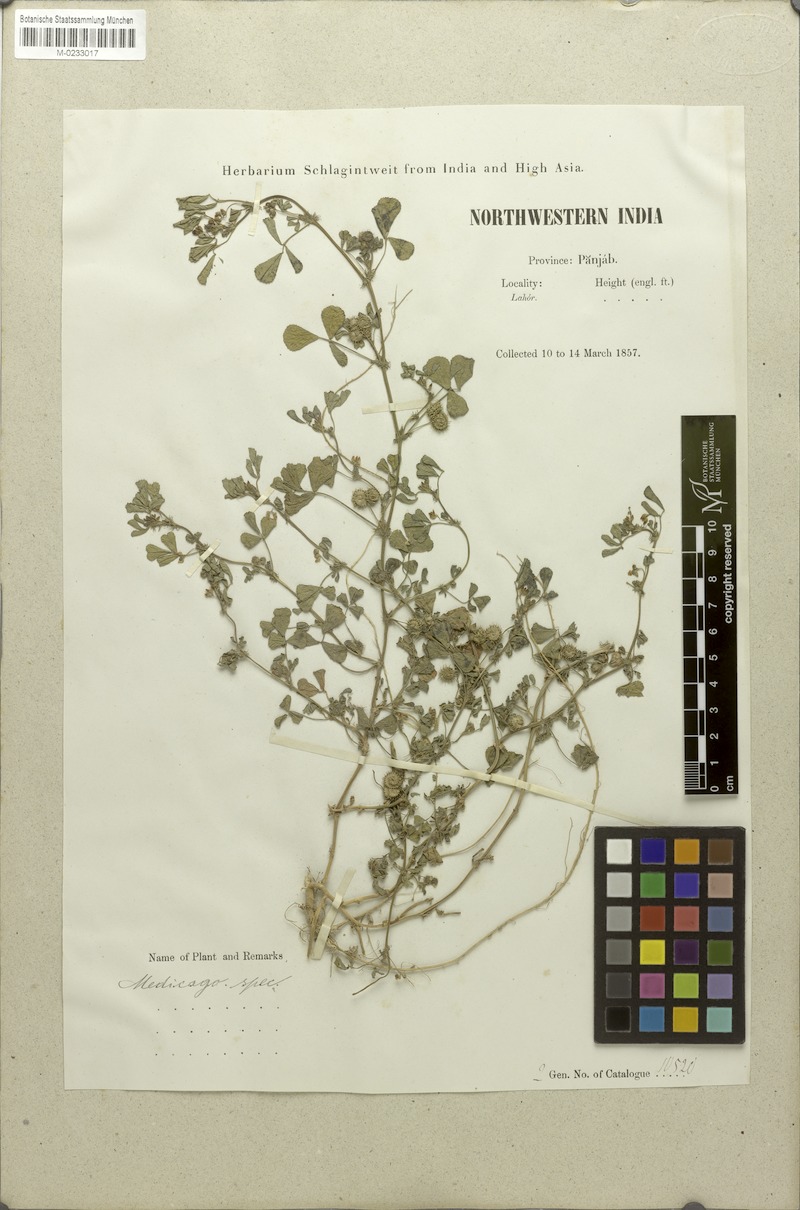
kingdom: Plantae
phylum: Tracheophyta
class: Magnoliopsida
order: Fabales
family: Fabaceae
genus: Medicago
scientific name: Medicago
